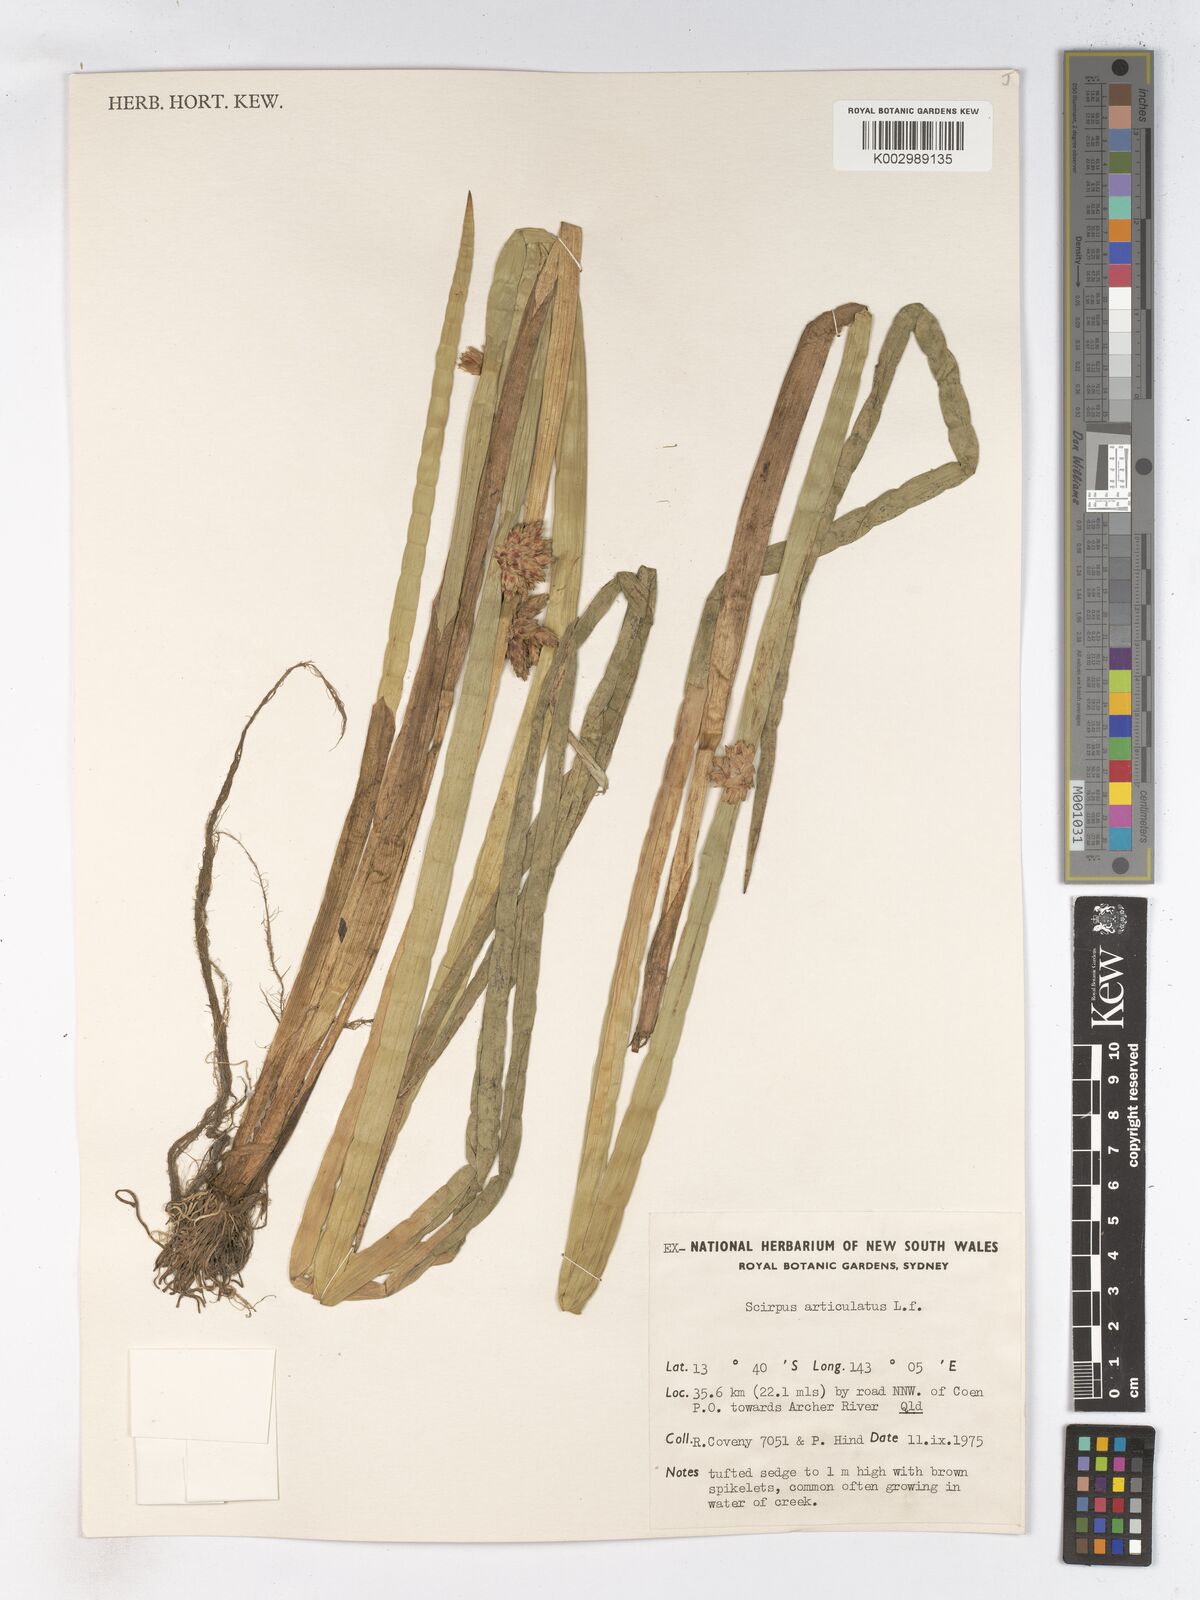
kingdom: Plantae
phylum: Tracheophyta
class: Liliopsida
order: Poales
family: Cyperaceae
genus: Schoenoplectiella
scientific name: Schoenoplectiella articulata
